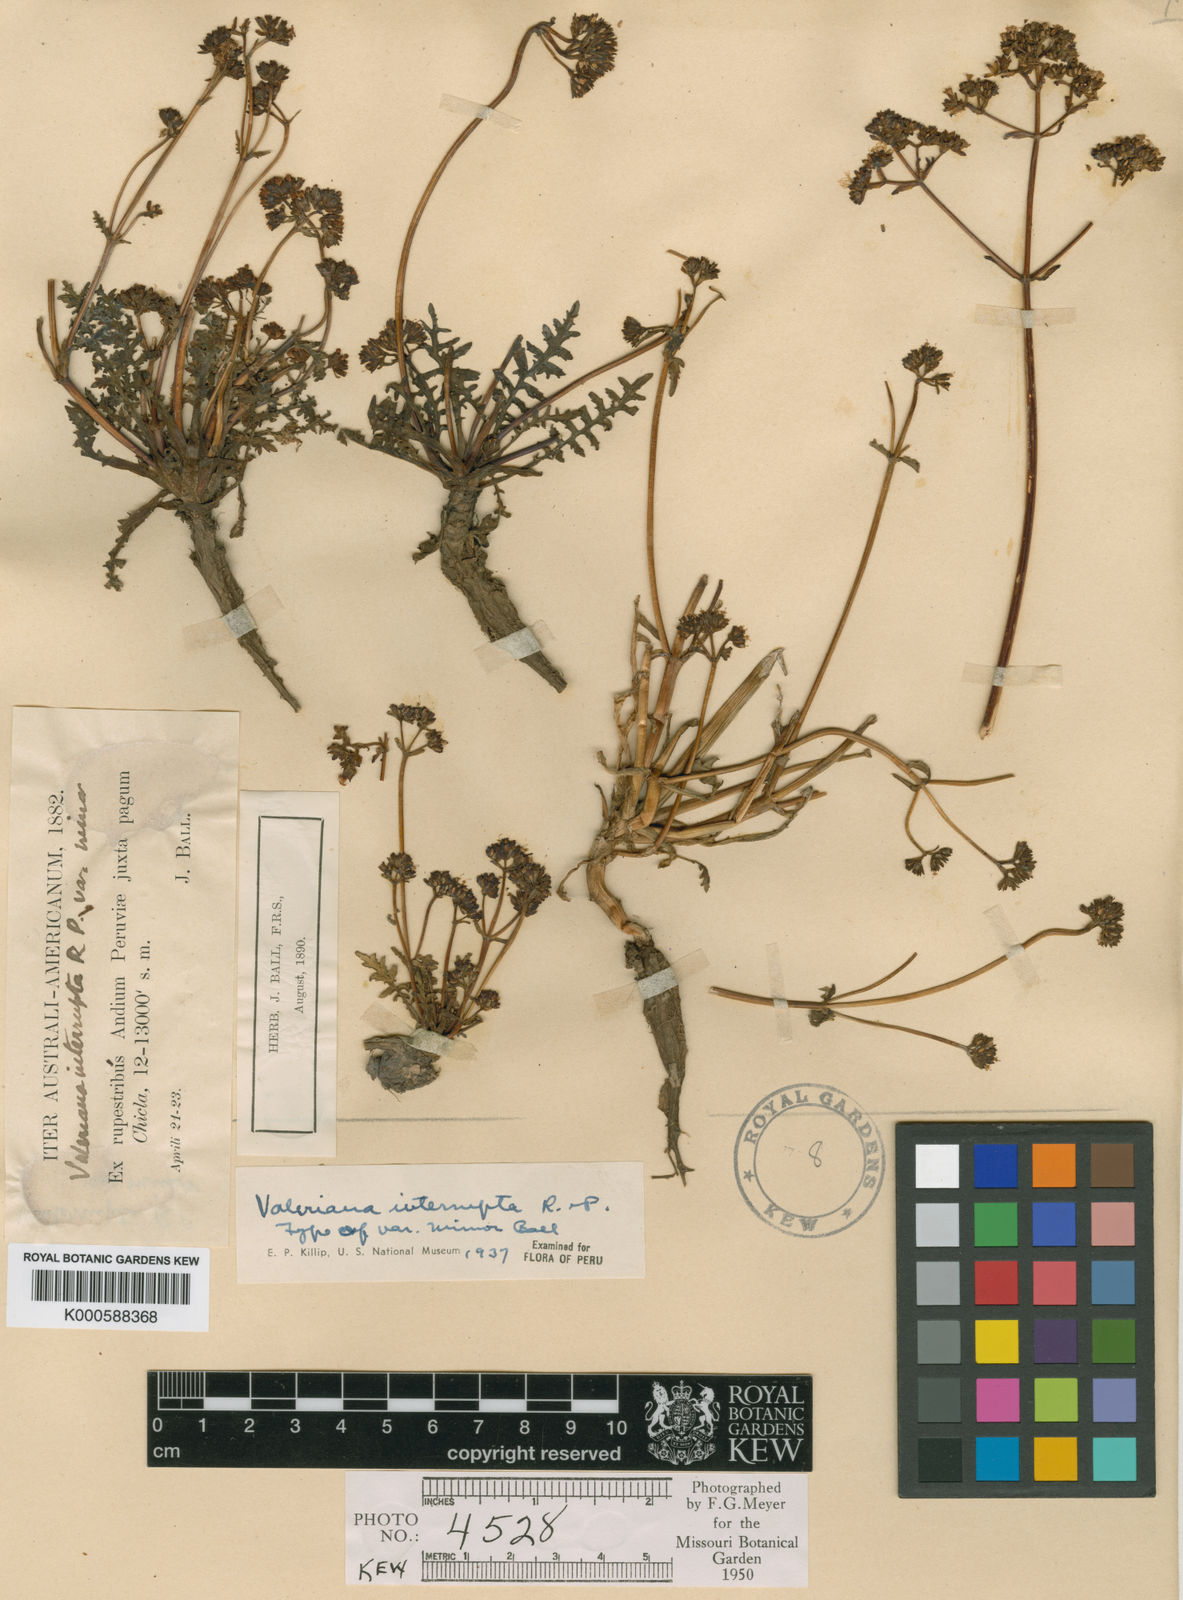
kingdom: Plantae
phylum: Tracheophyta
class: Magnoliopsida
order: Dipsacales
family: Caprifoliaceae
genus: Valeriana
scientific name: Valeriana interrupta
